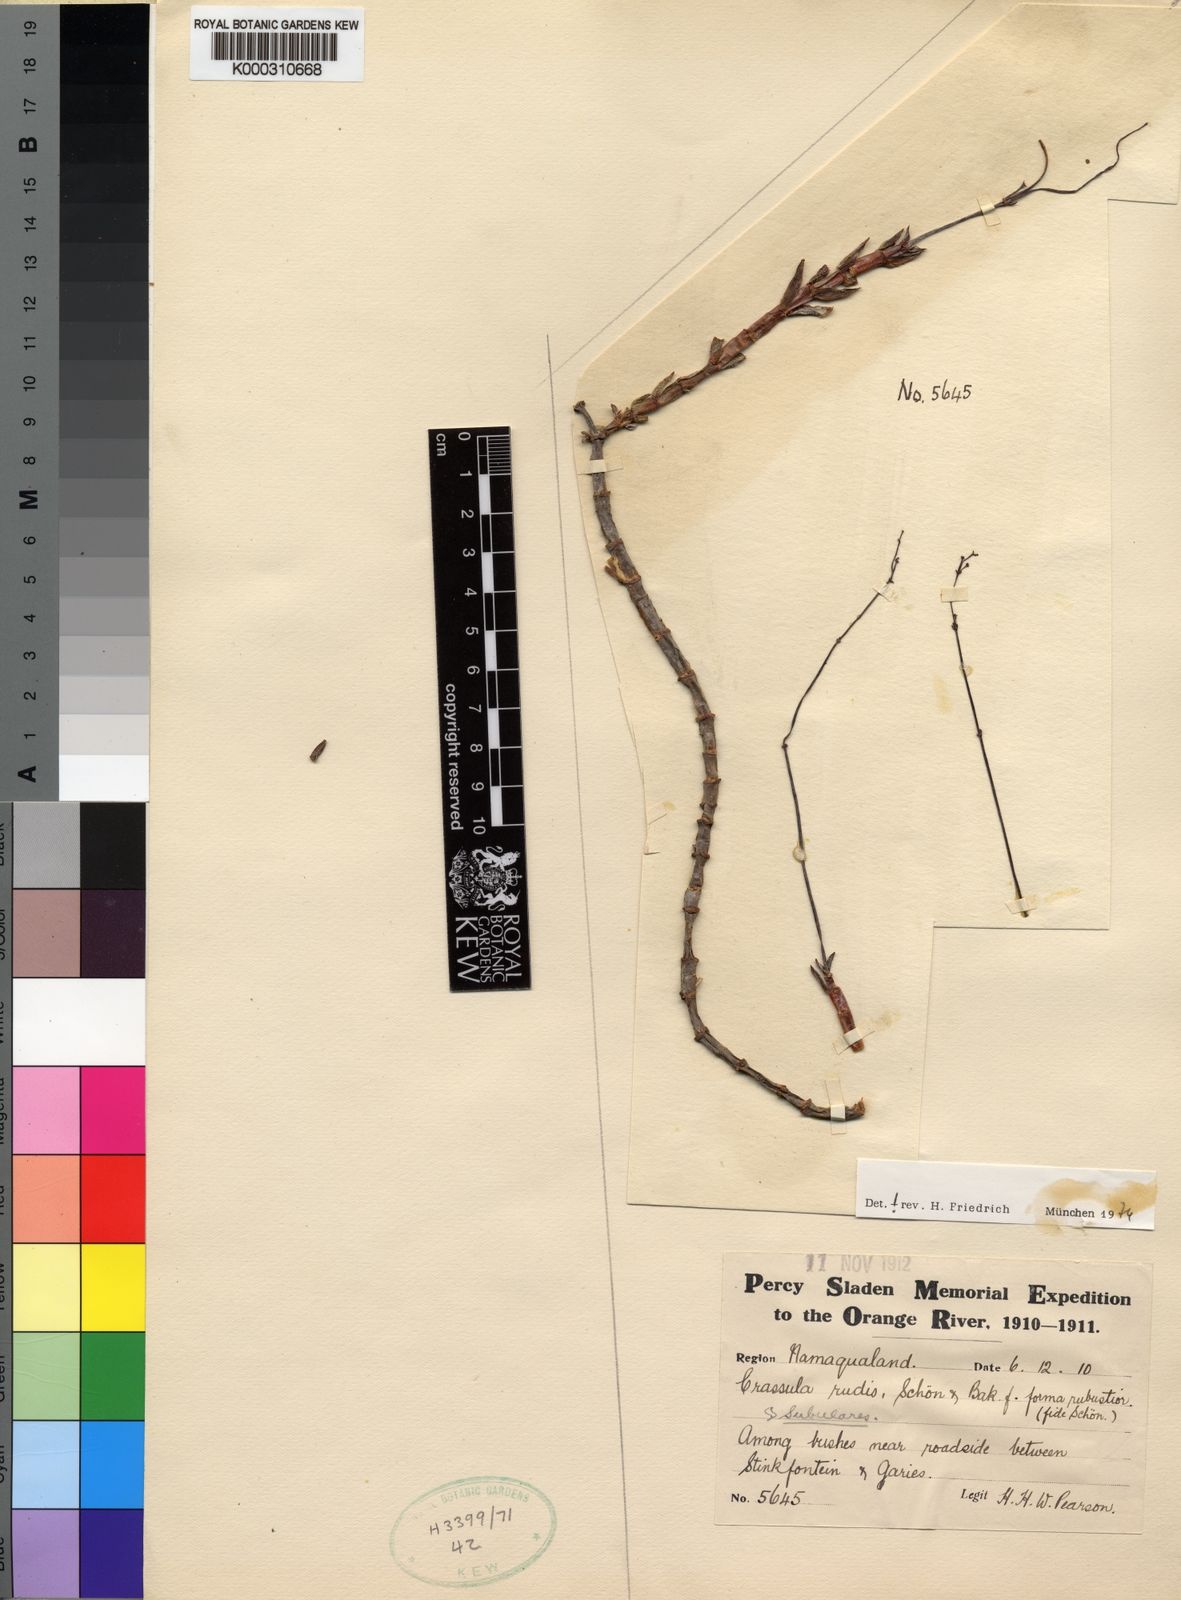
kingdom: Plantae
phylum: Tracheophyta
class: Magnoliopsida
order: Saxifragales
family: Crassulaceae
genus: Crassula
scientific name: Crassula tetragona
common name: Pygmyweed
